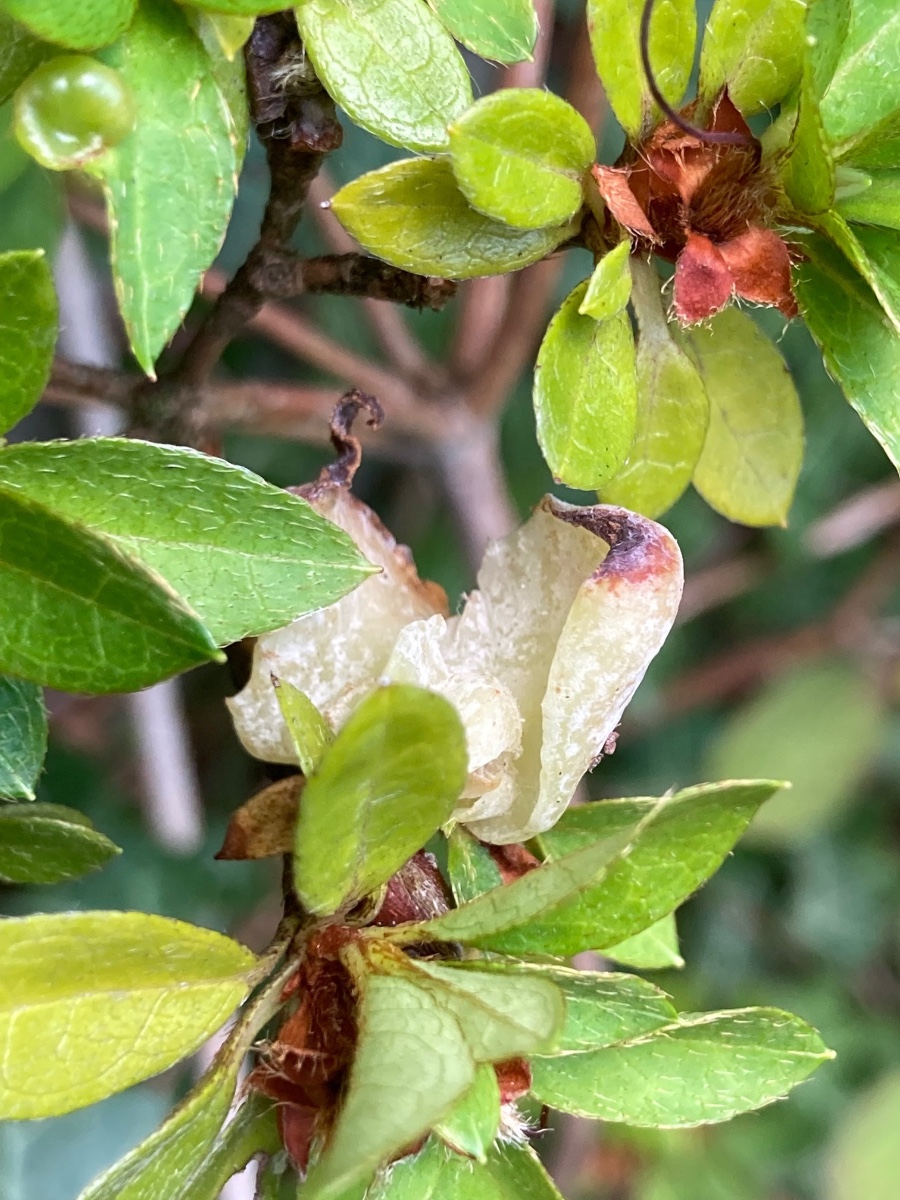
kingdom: Fungi
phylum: Basidiomycota
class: Exobasidiomycetes
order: Exobasidiales
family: Exobasidiaceae
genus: Exobasidium
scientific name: Exobasidium rhododendri
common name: rhododendron-bøllesvamp
